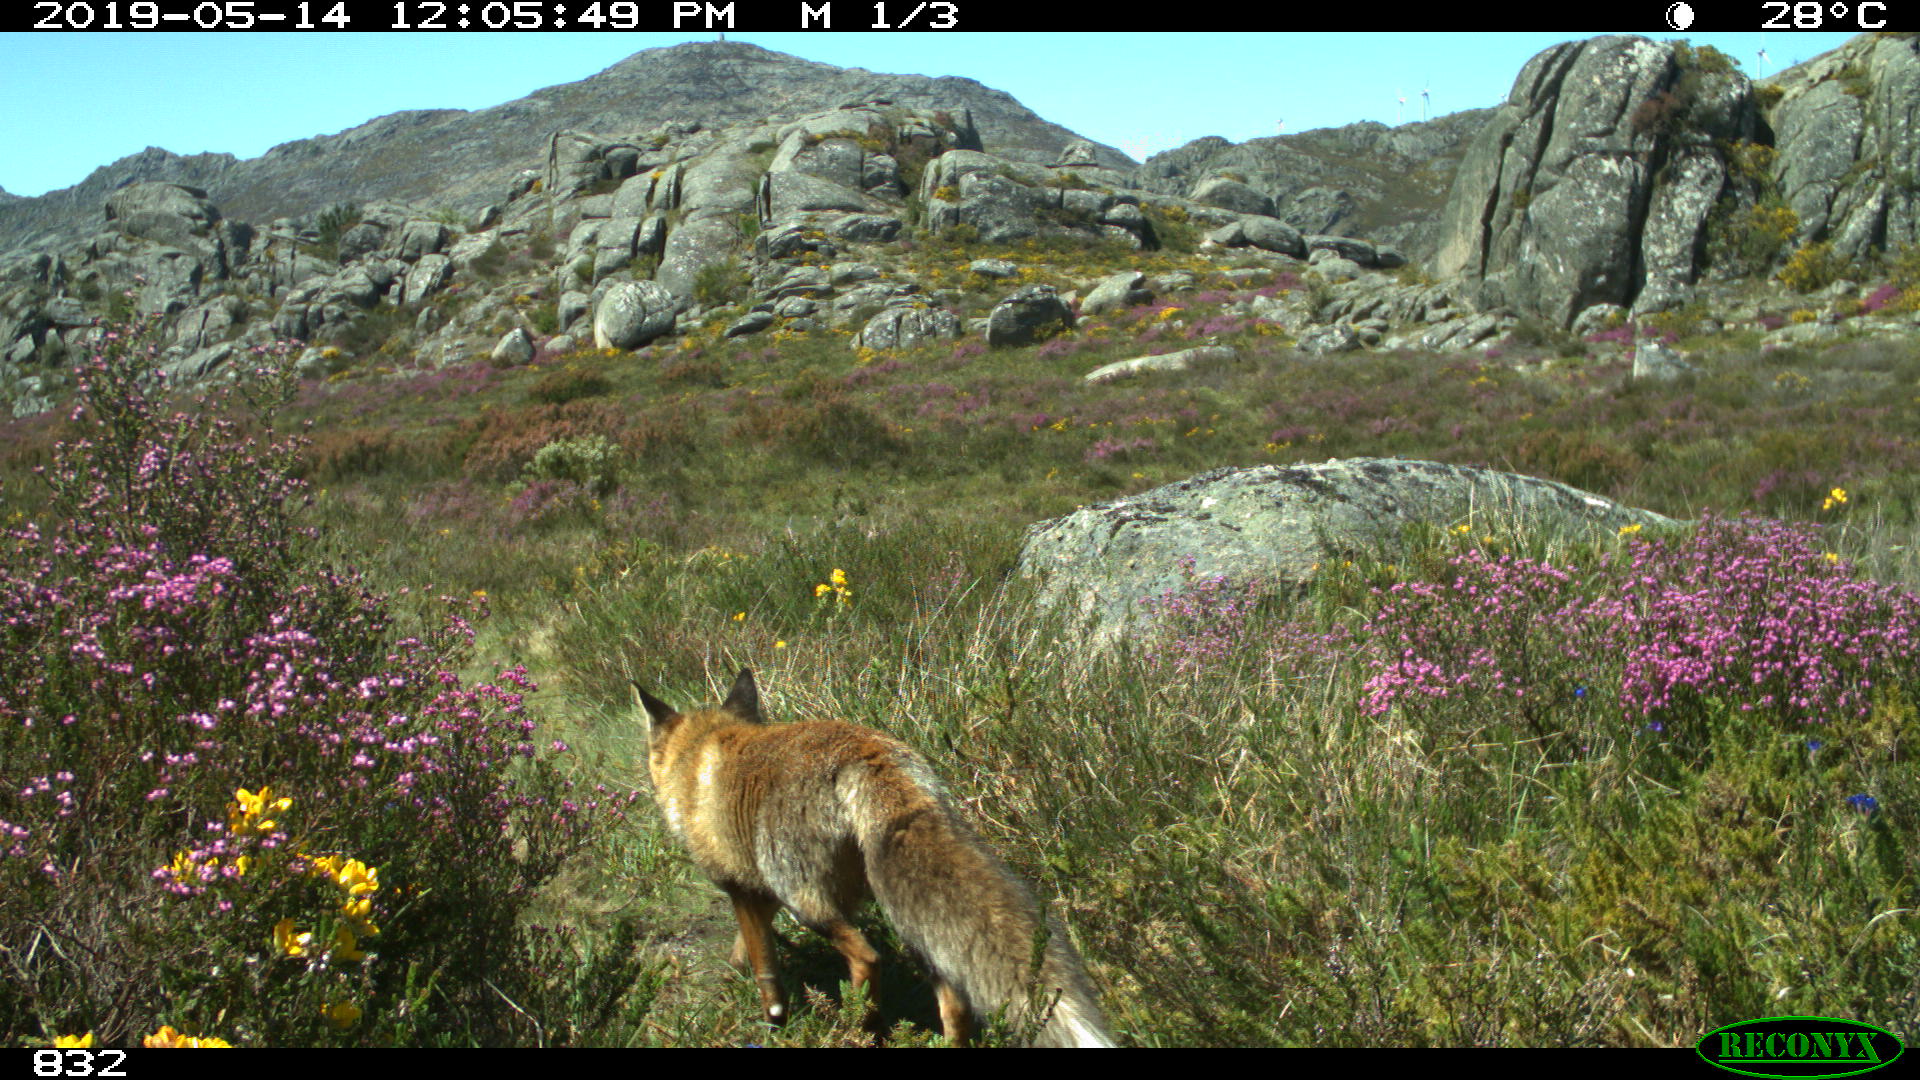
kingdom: Animalia
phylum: Chordata
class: Mammalia
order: Carnivora
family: Canidae
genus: Vulpes
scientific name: Vulpes vulpes
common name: Red fox
